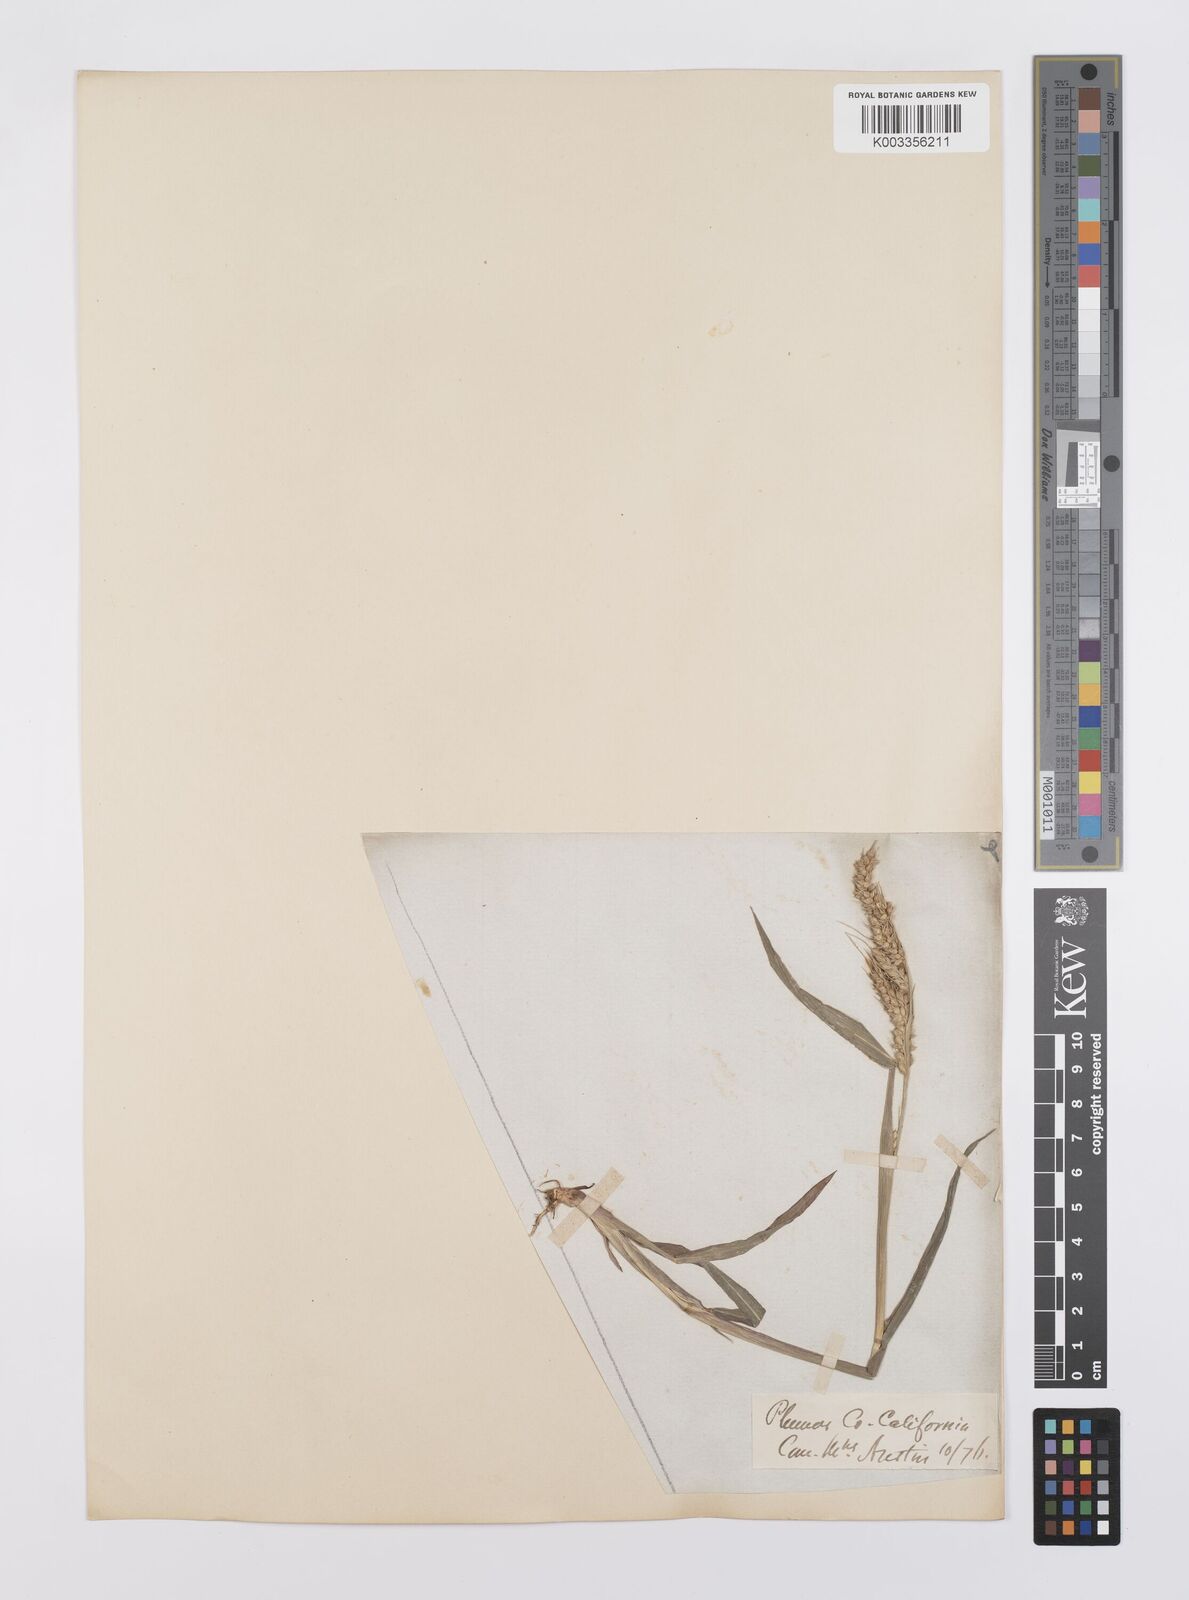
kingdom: Plantae
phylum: Tracheophyta
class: Liliopsida
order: Poales
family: Poaceae
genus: Echinochloa
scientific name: Echinochloa crus-galli
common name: Cockspur
